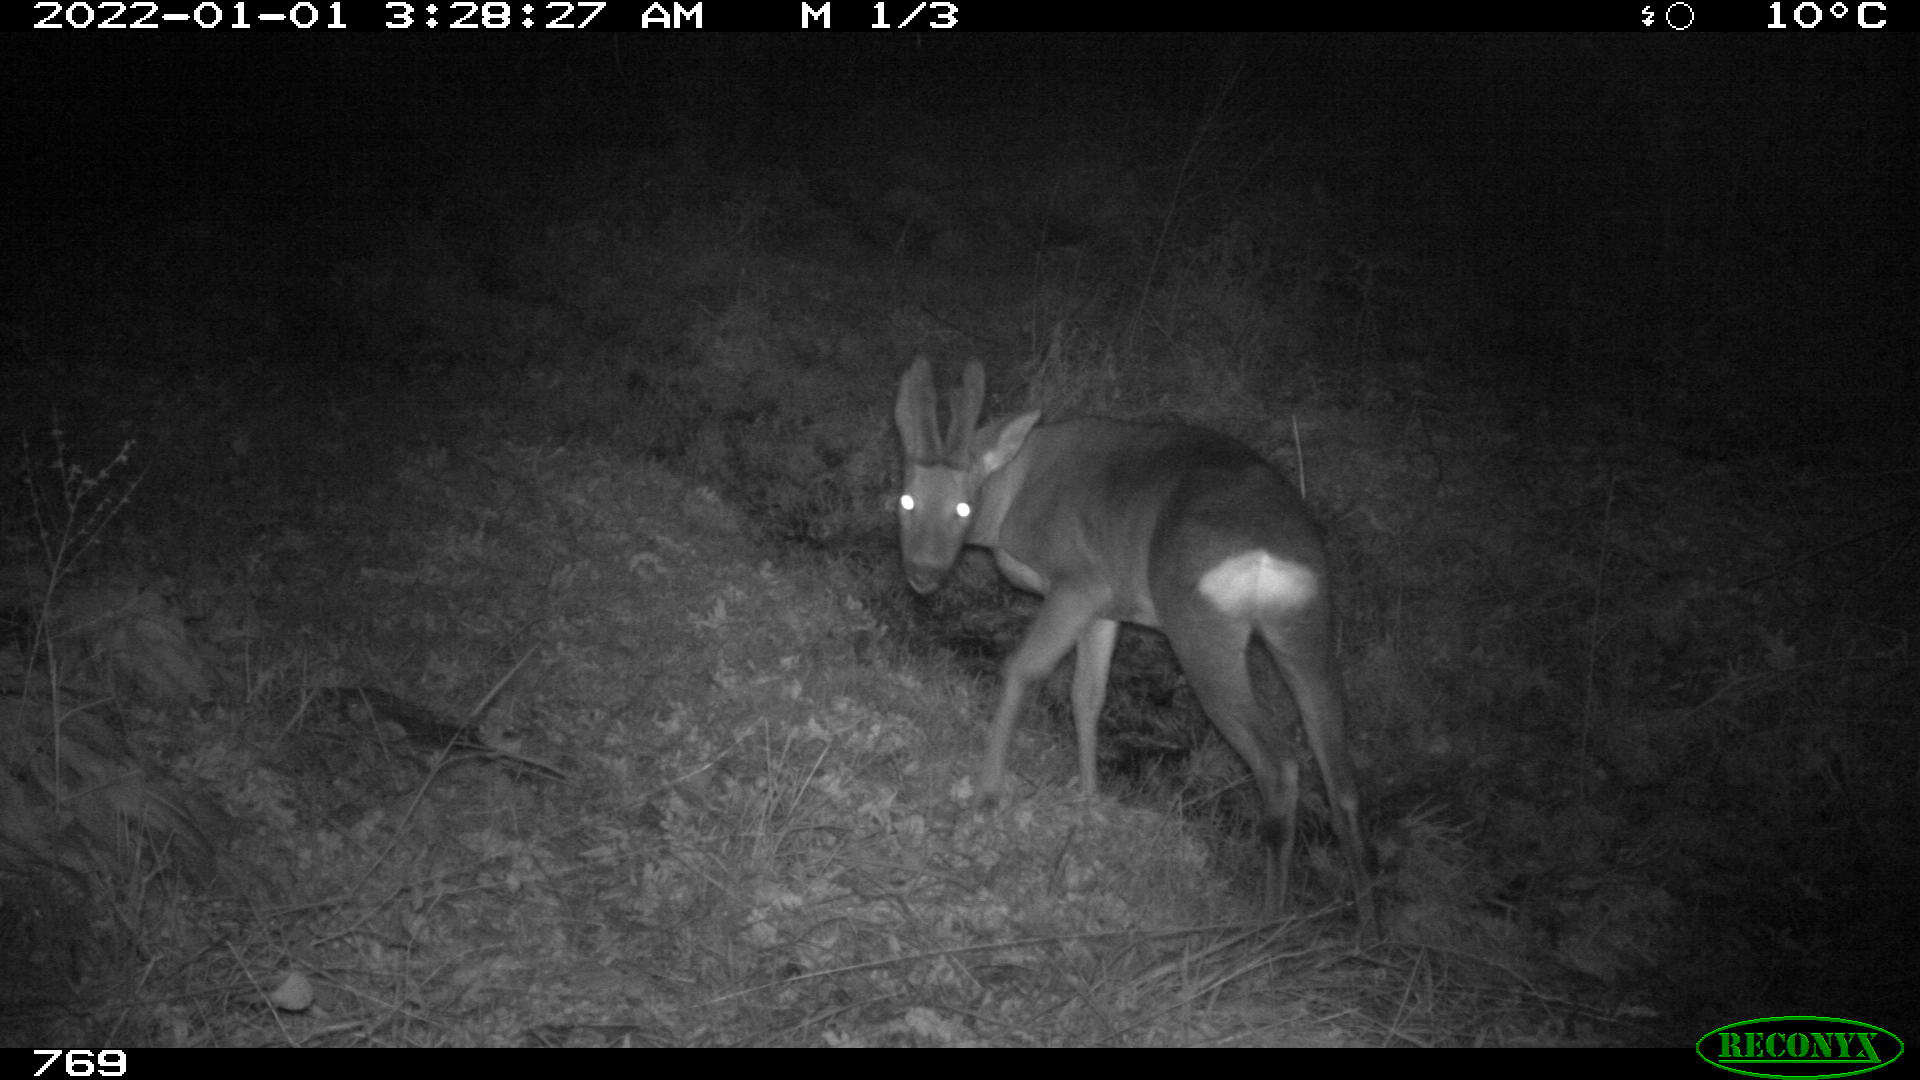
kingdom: Animalia
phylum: Chordata
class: Mammalia
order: Artiodactyla
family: Cervidae
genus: Capreolus
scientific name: Capreolus capreolus
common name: Western roe deer
